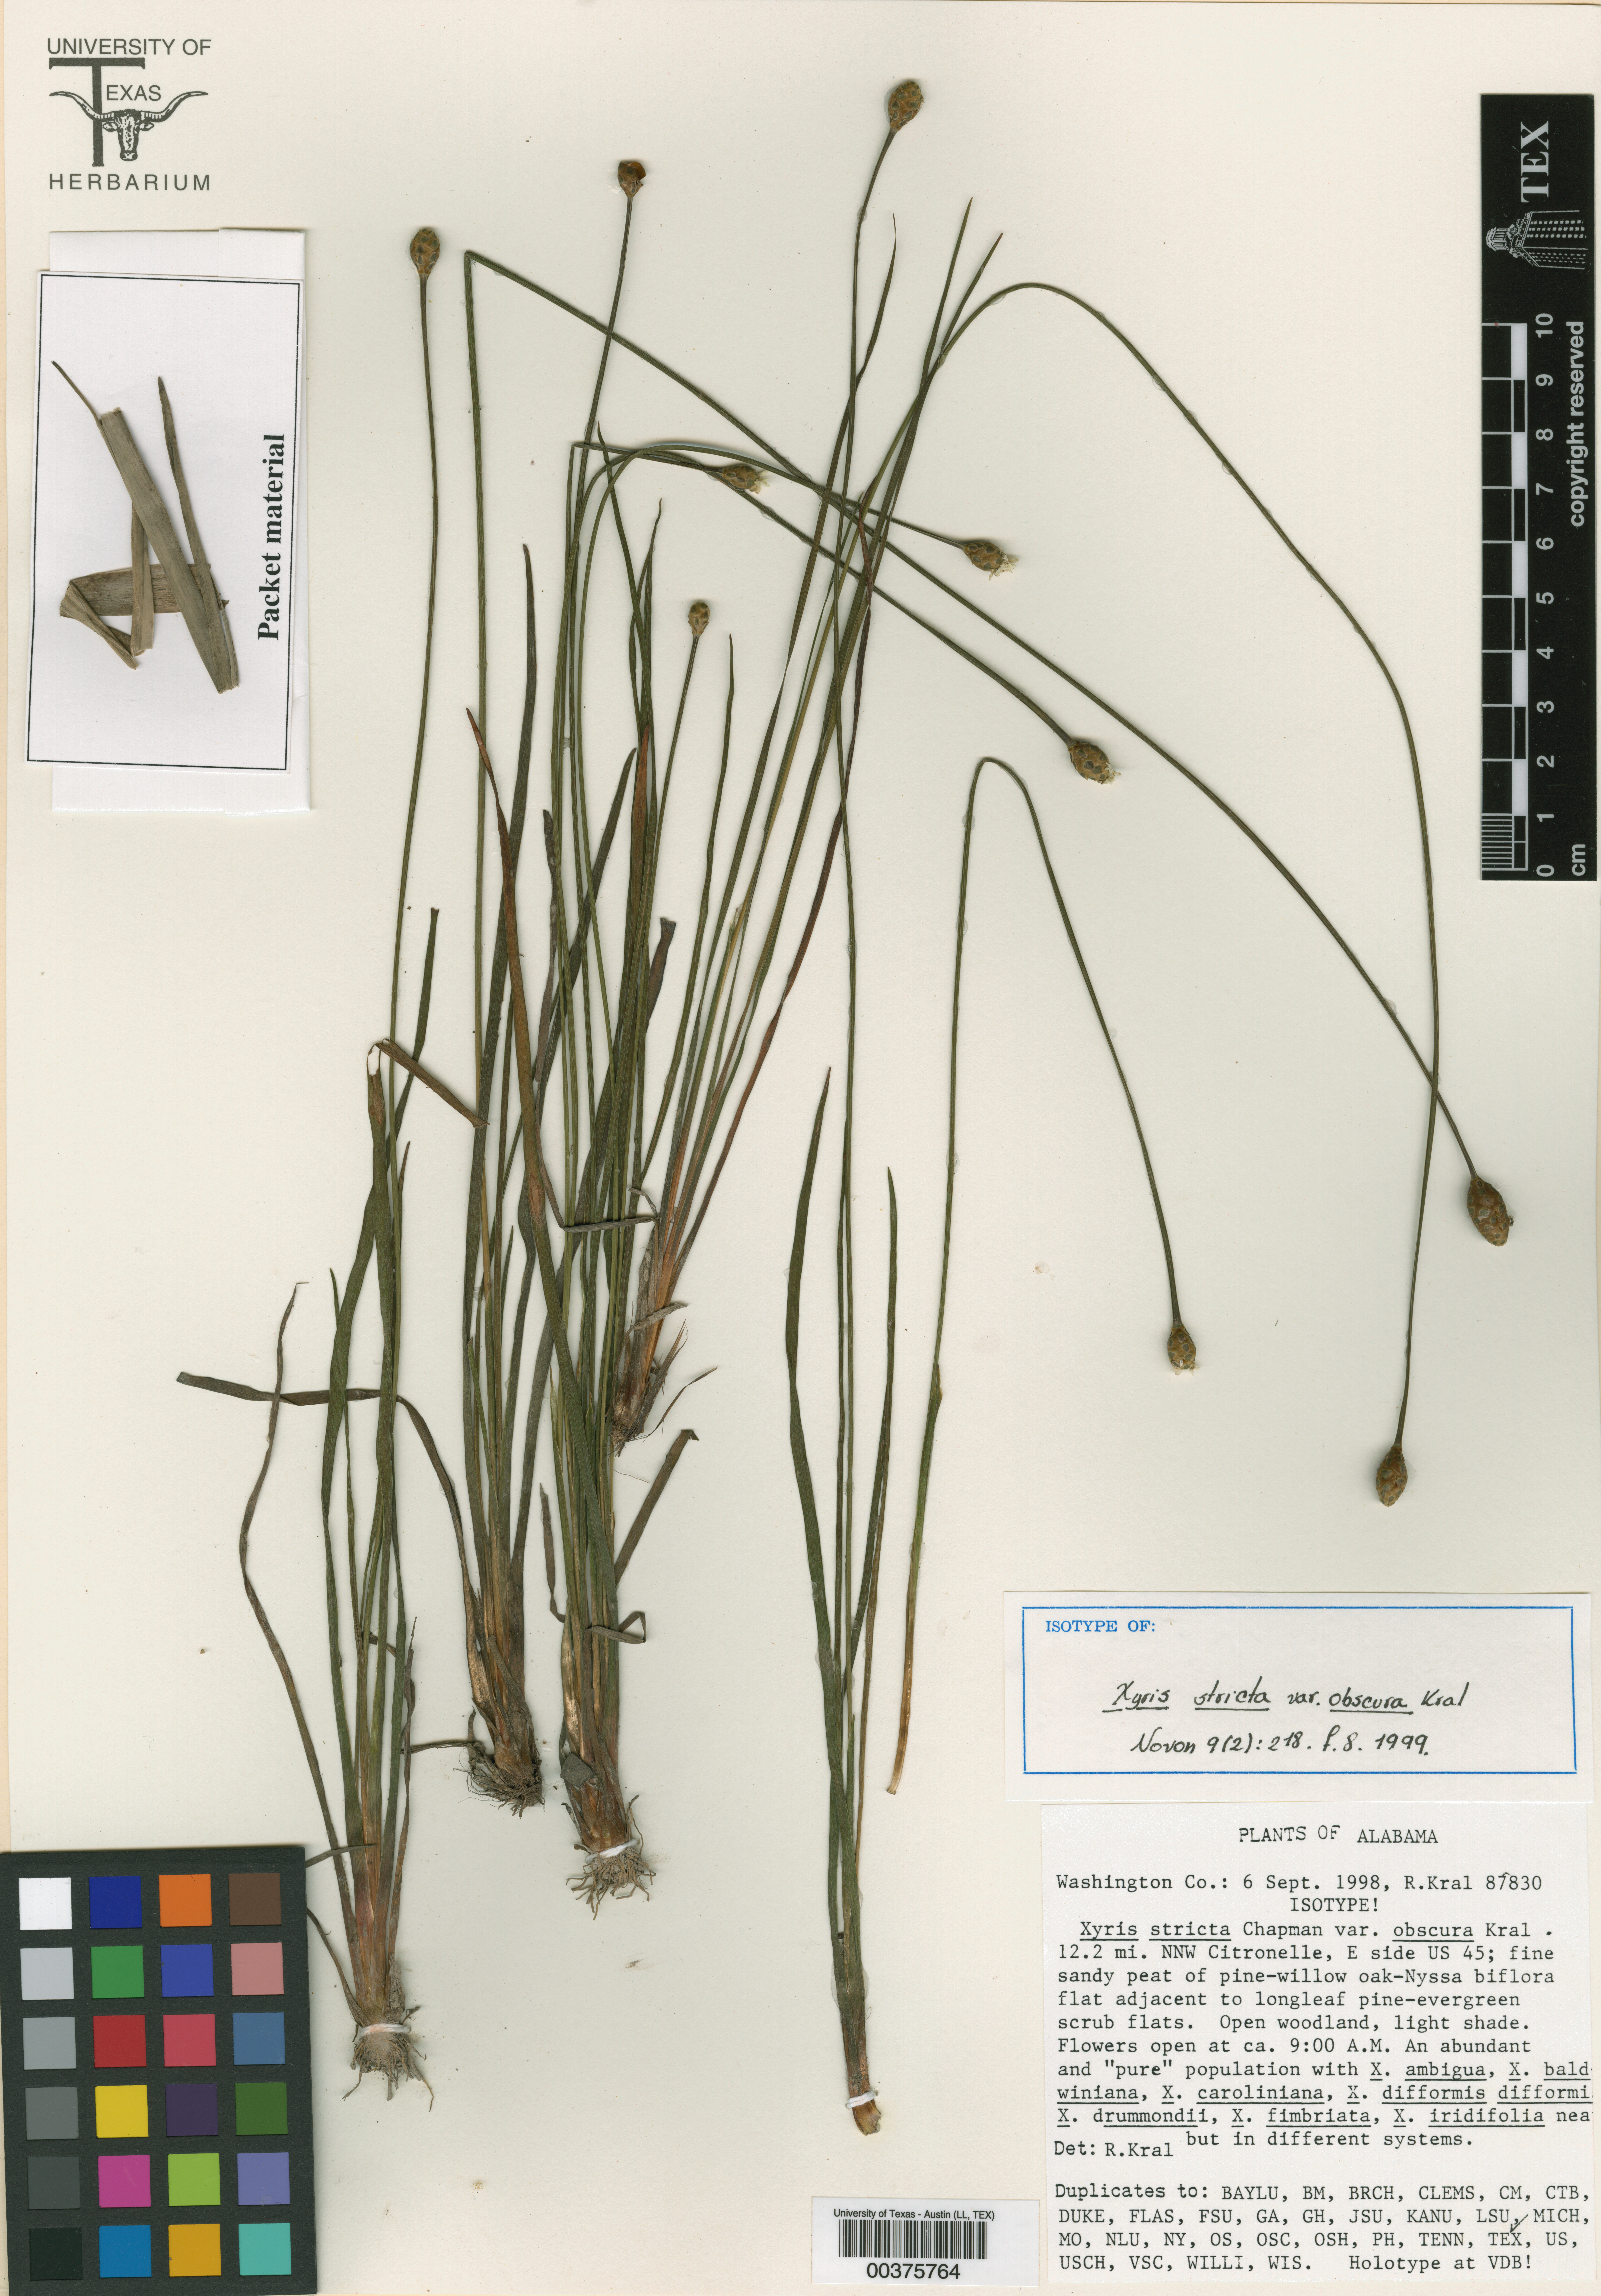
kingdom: Plantae
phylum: Tracheophyta
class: Liliopsida
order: Poales
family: Xyridaceae
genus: Xyris
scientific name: Xyris stricta
